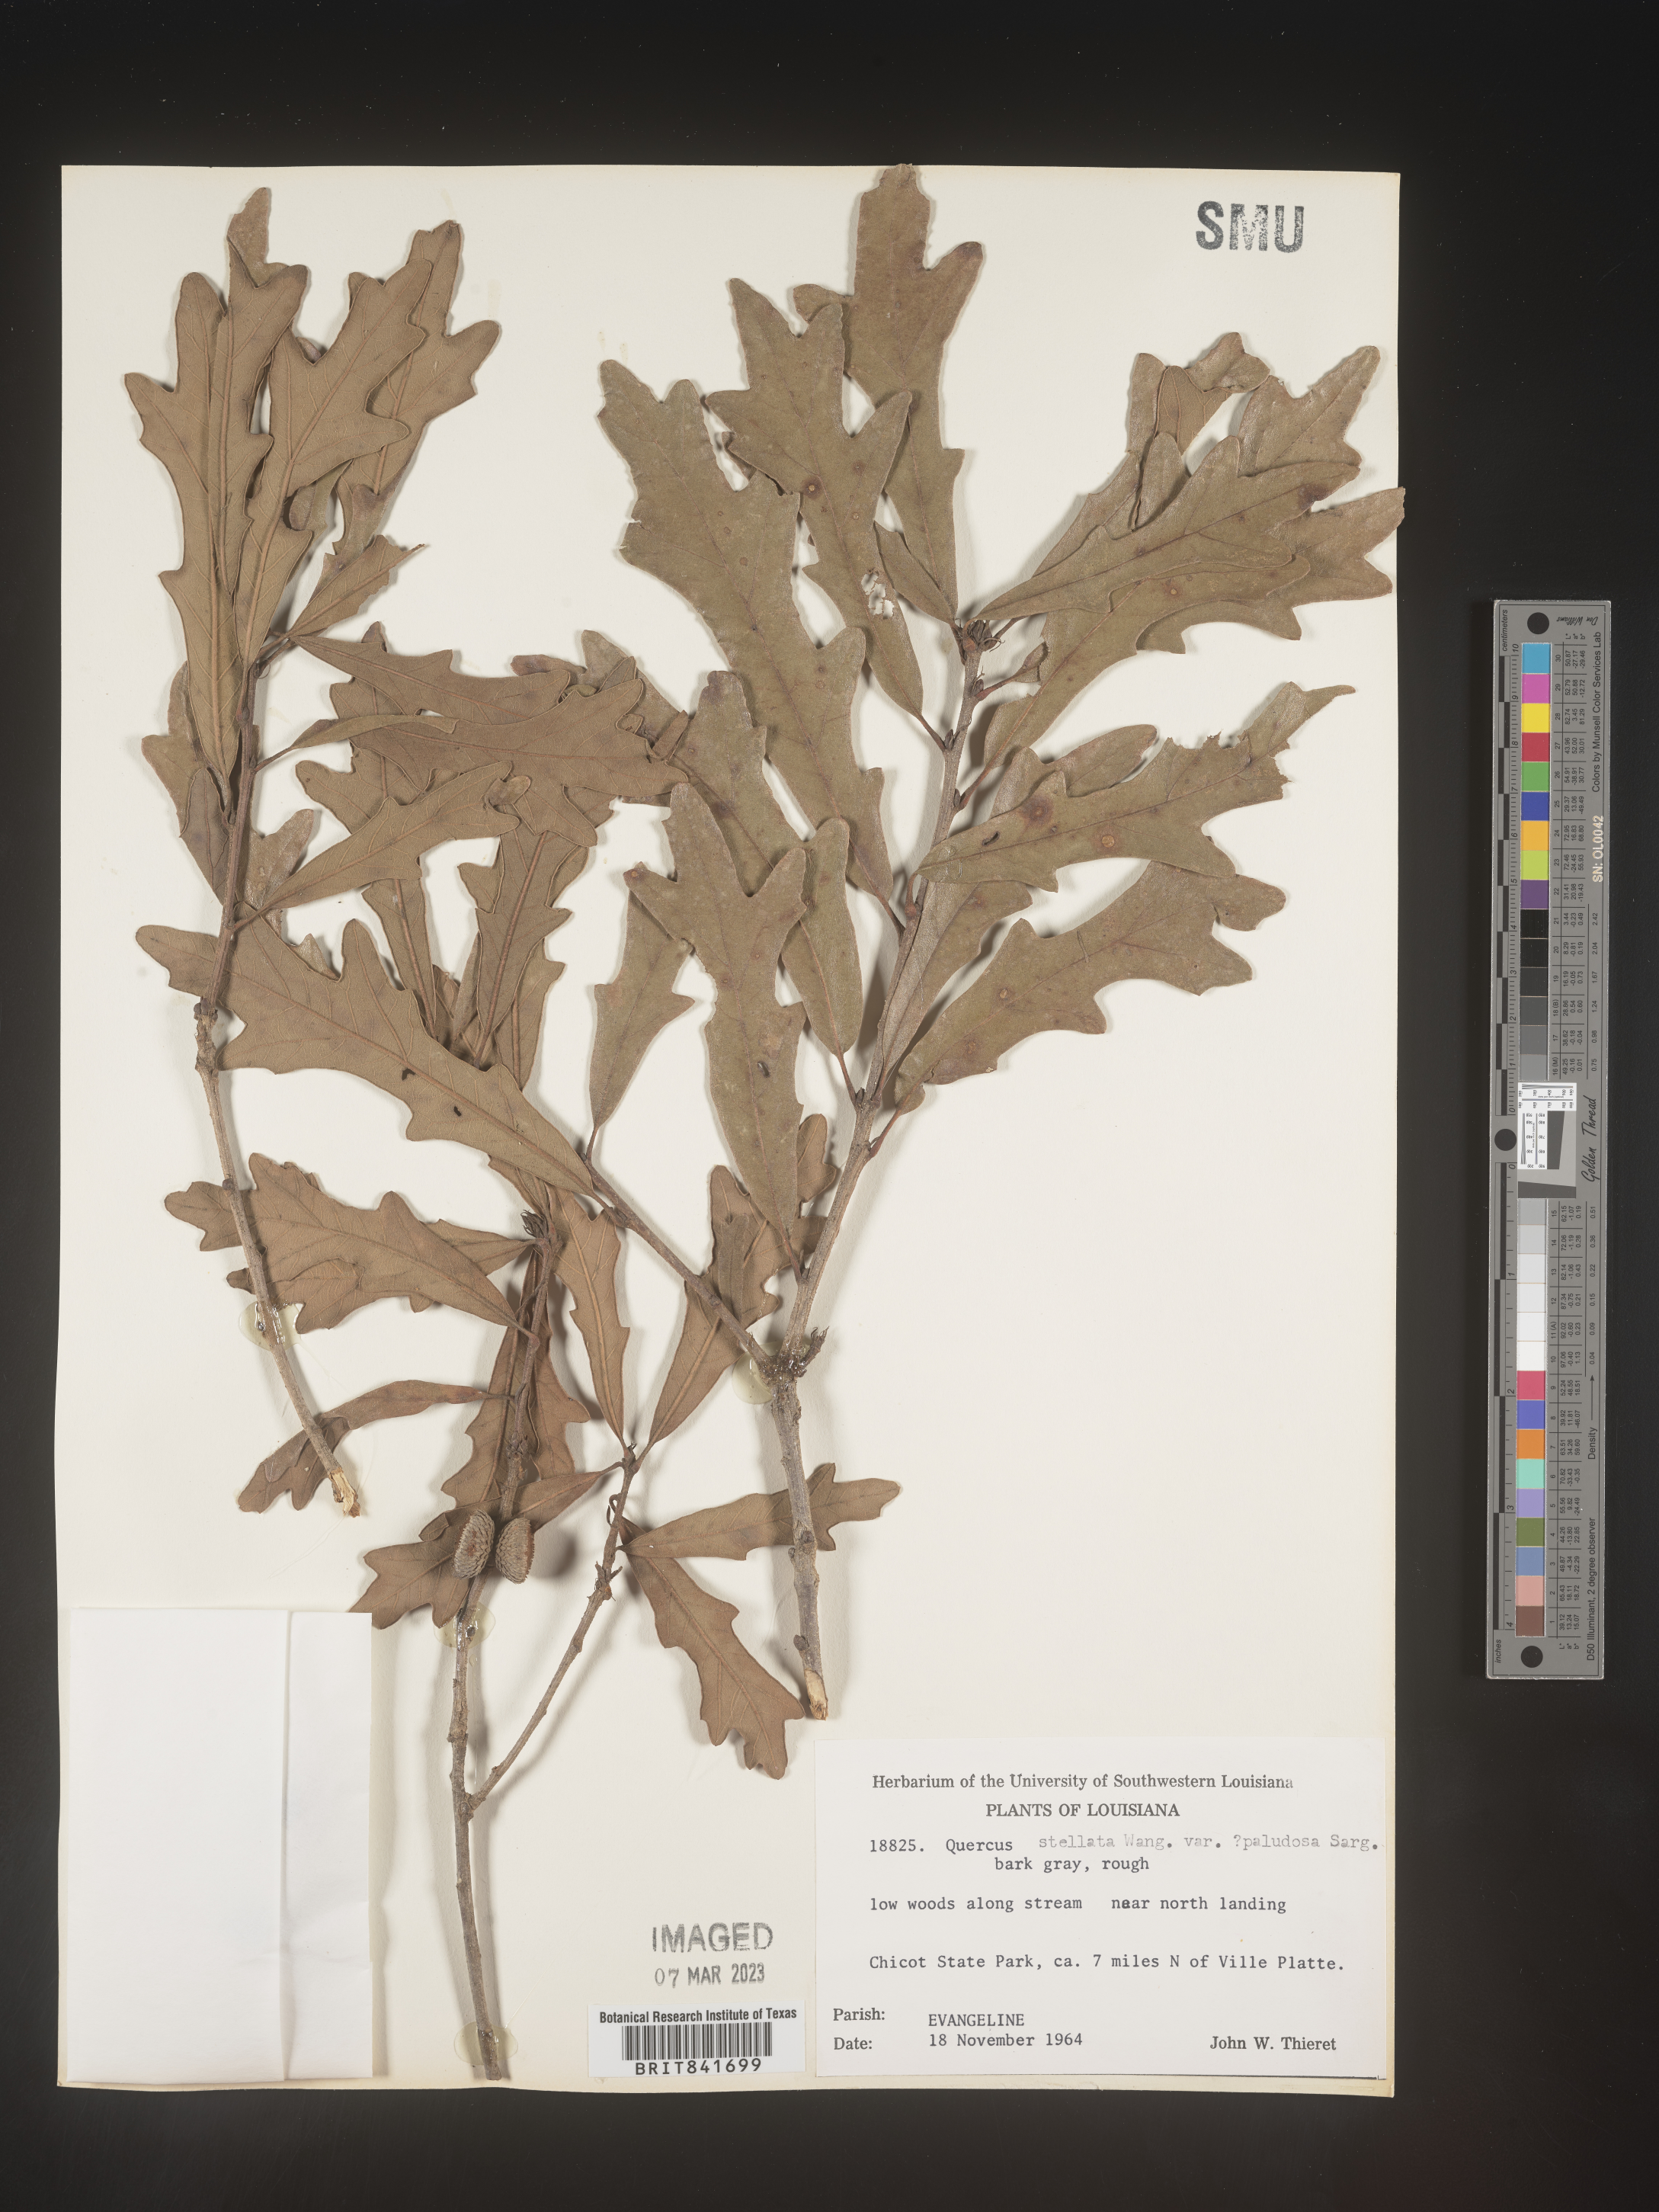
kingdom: Plantae
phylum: Tracheophyta
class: Magnoliopsida
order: Fagales
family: Fagaceae
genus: Quercus
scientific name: Quercus stellata
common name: Post oak
